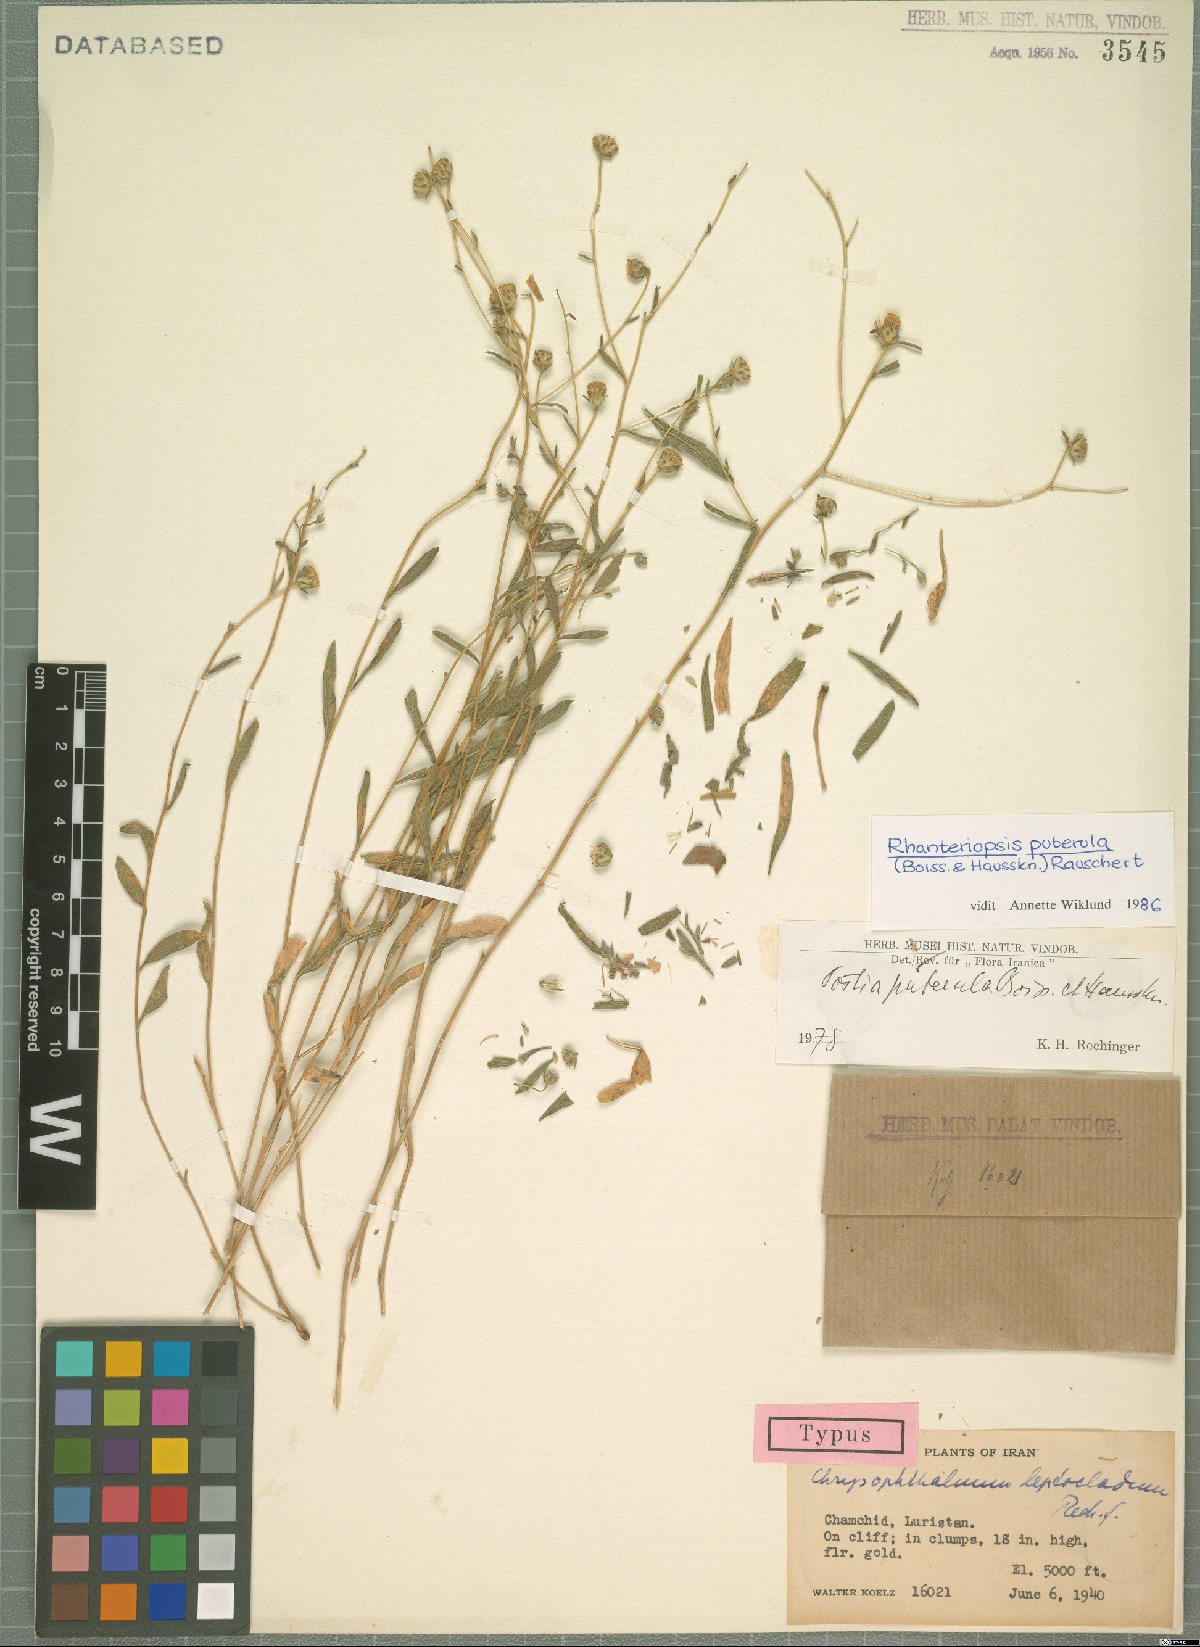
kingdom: Plantae
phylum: Tracheophyta
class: Magnoliopsida
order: Asterales
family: Asteraceae
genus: Rhanteriopsis
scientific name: Rhanteriopsis puberula
